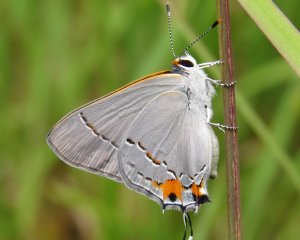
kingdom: Animalia
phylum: Arthropoda
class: Insecta
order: Lepidoptera
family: Lycaenidae
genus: Strymon
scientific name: Strymon melinus
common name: Gray Hairstreak
